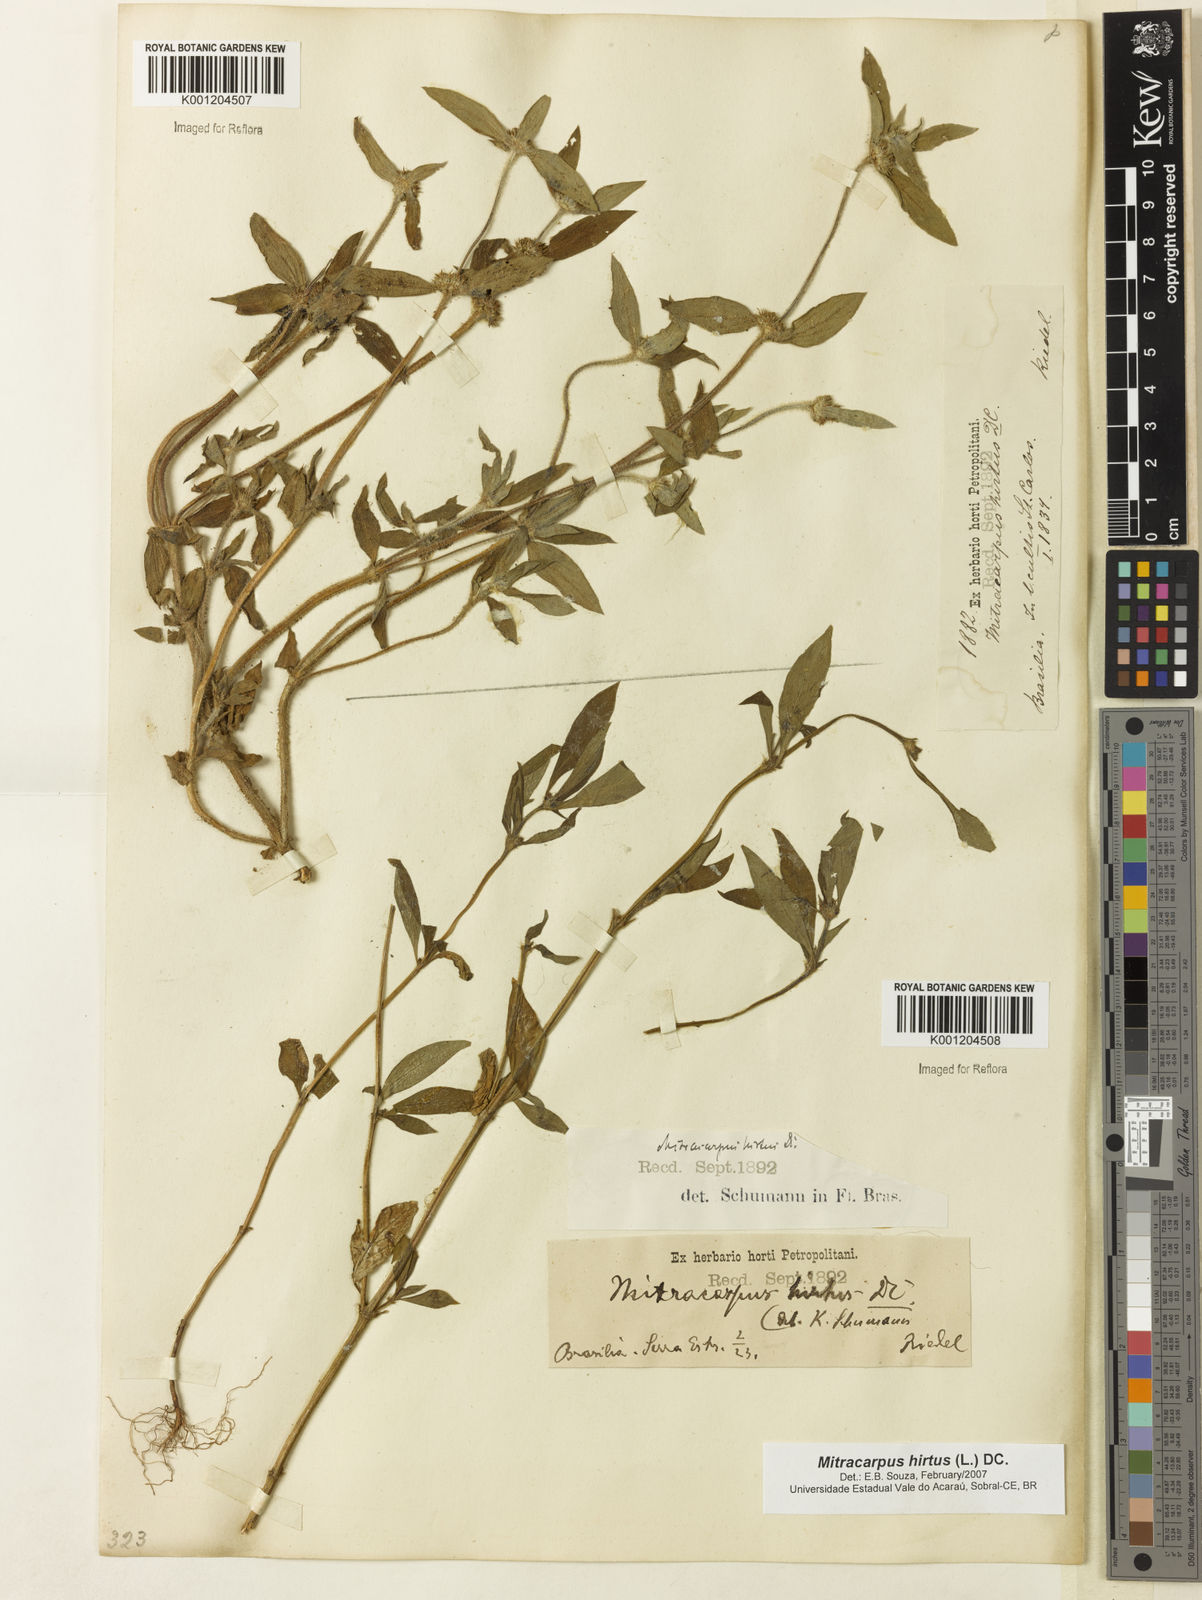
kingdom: Plantae
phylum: Tracheophyta
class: Magnoliopsida
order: Gentianales
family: Rubiaceae
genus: Mitracarpus
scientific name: Mitracarpus hirtus
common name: Tropical girdlepod
